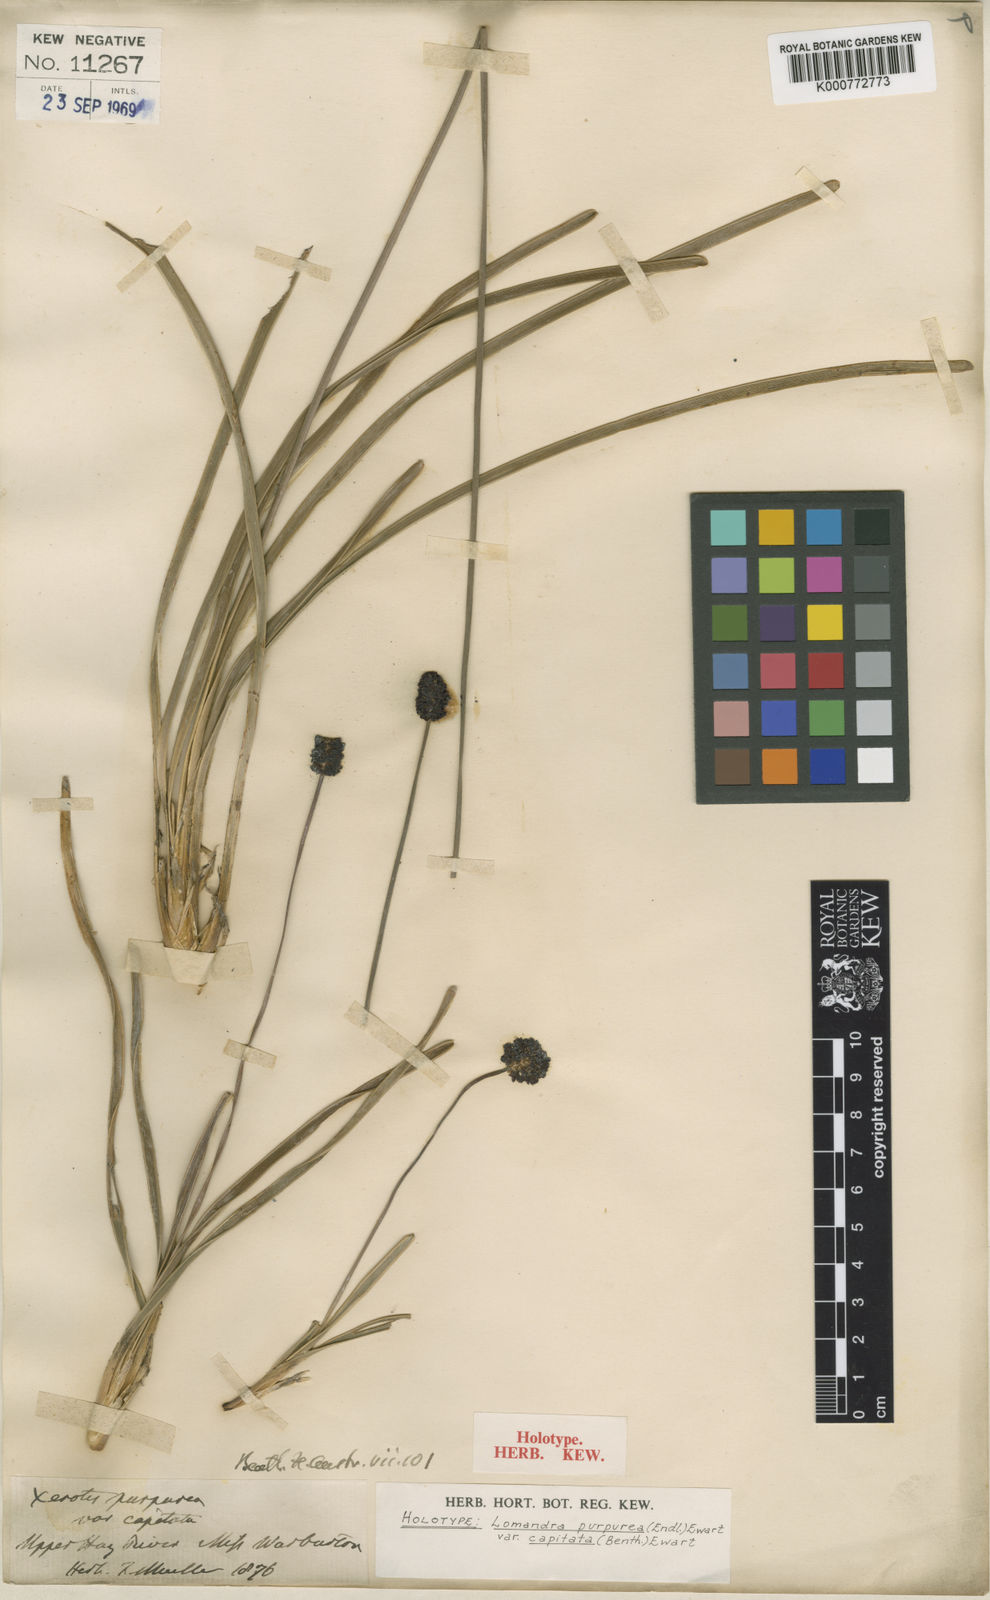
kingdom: Plantae
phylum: Tracheophyta
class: Liliopsida
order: Asparagales
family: Asparagaceae
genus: Lomandra
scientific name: Lomandra purpurea
